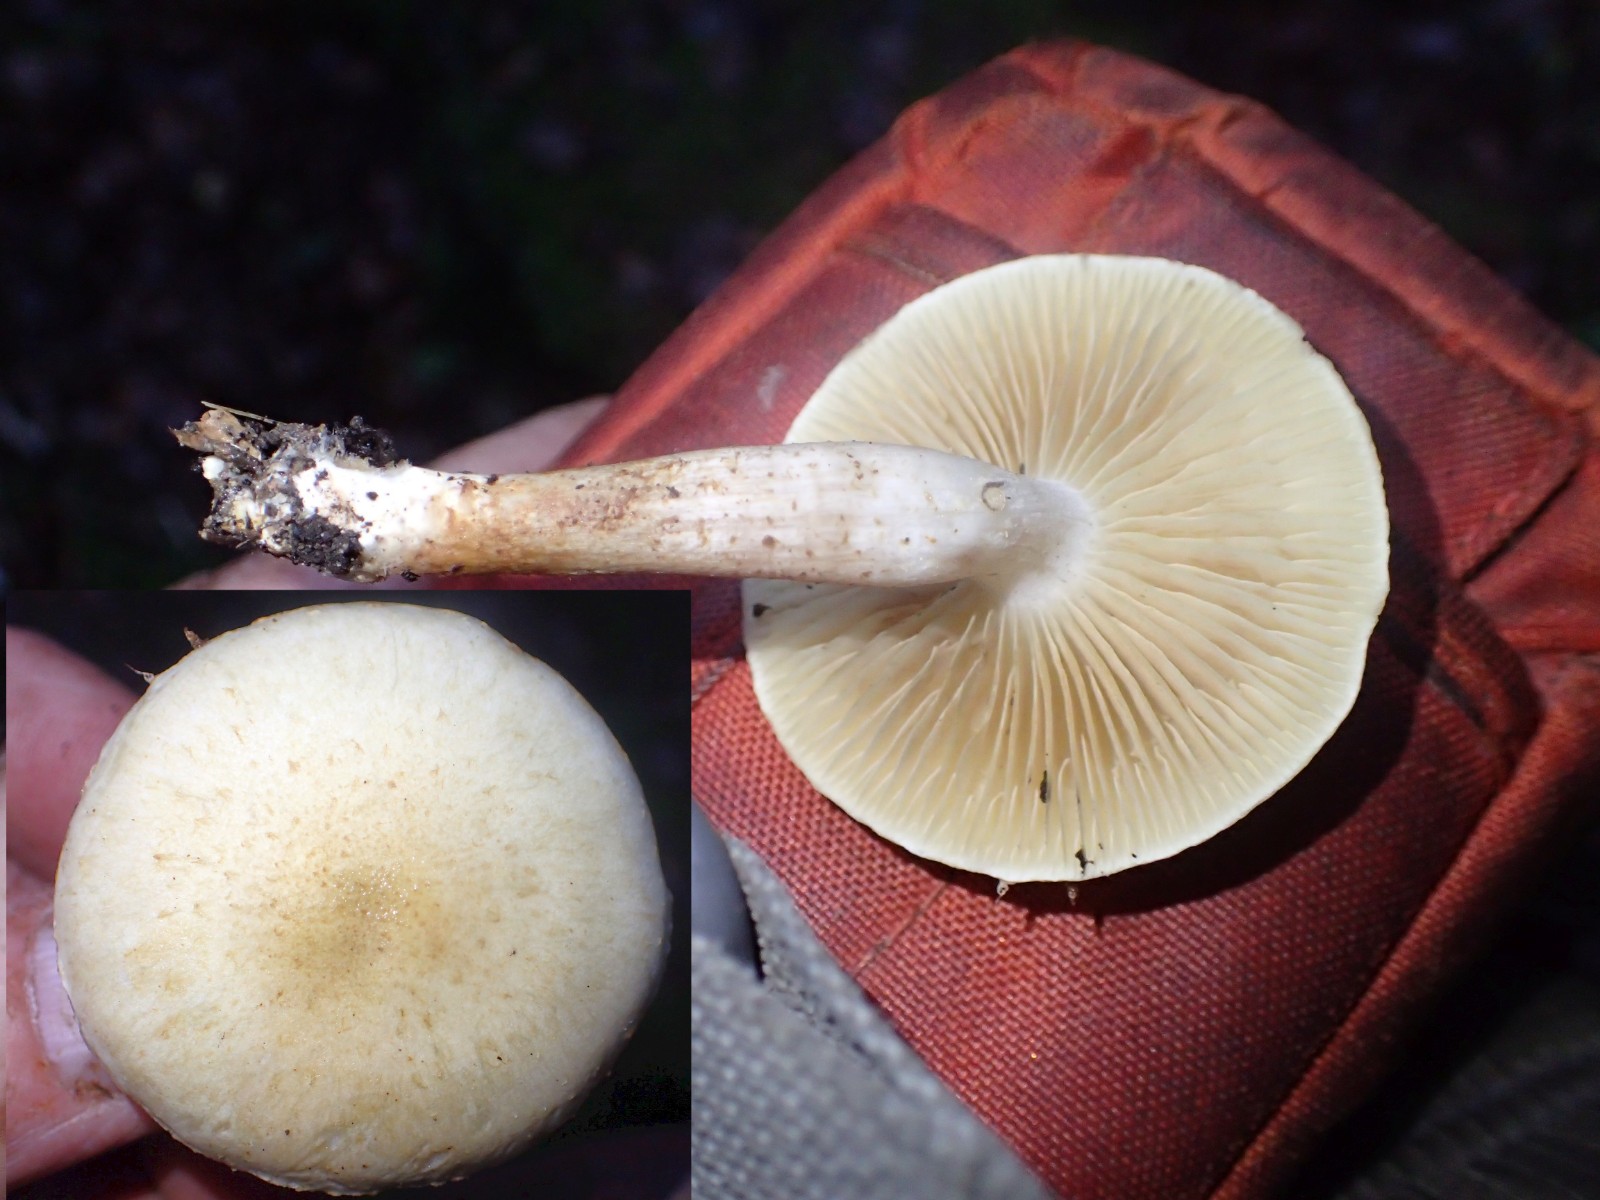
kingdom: Fungi
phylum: Basidiomycota
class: Agaricomycetes
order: Agaricales
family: Strophariaceae
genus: Pholiota
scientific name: Pholiota gummosa
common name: grøngul skælhat
